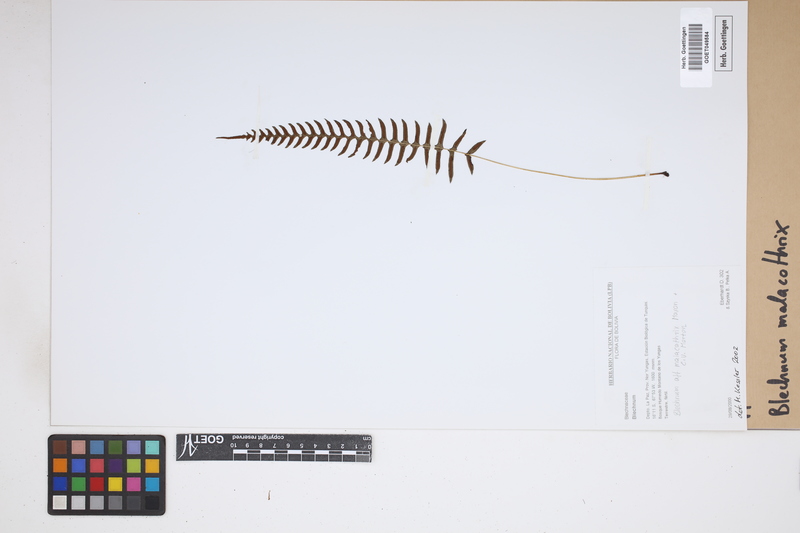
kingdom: Plantae
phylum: Tracheophyta
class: Polypodiopsida
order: Polypodiales
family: Blechnaceae
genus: Blechnum
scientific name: Blechnum malacothrix
